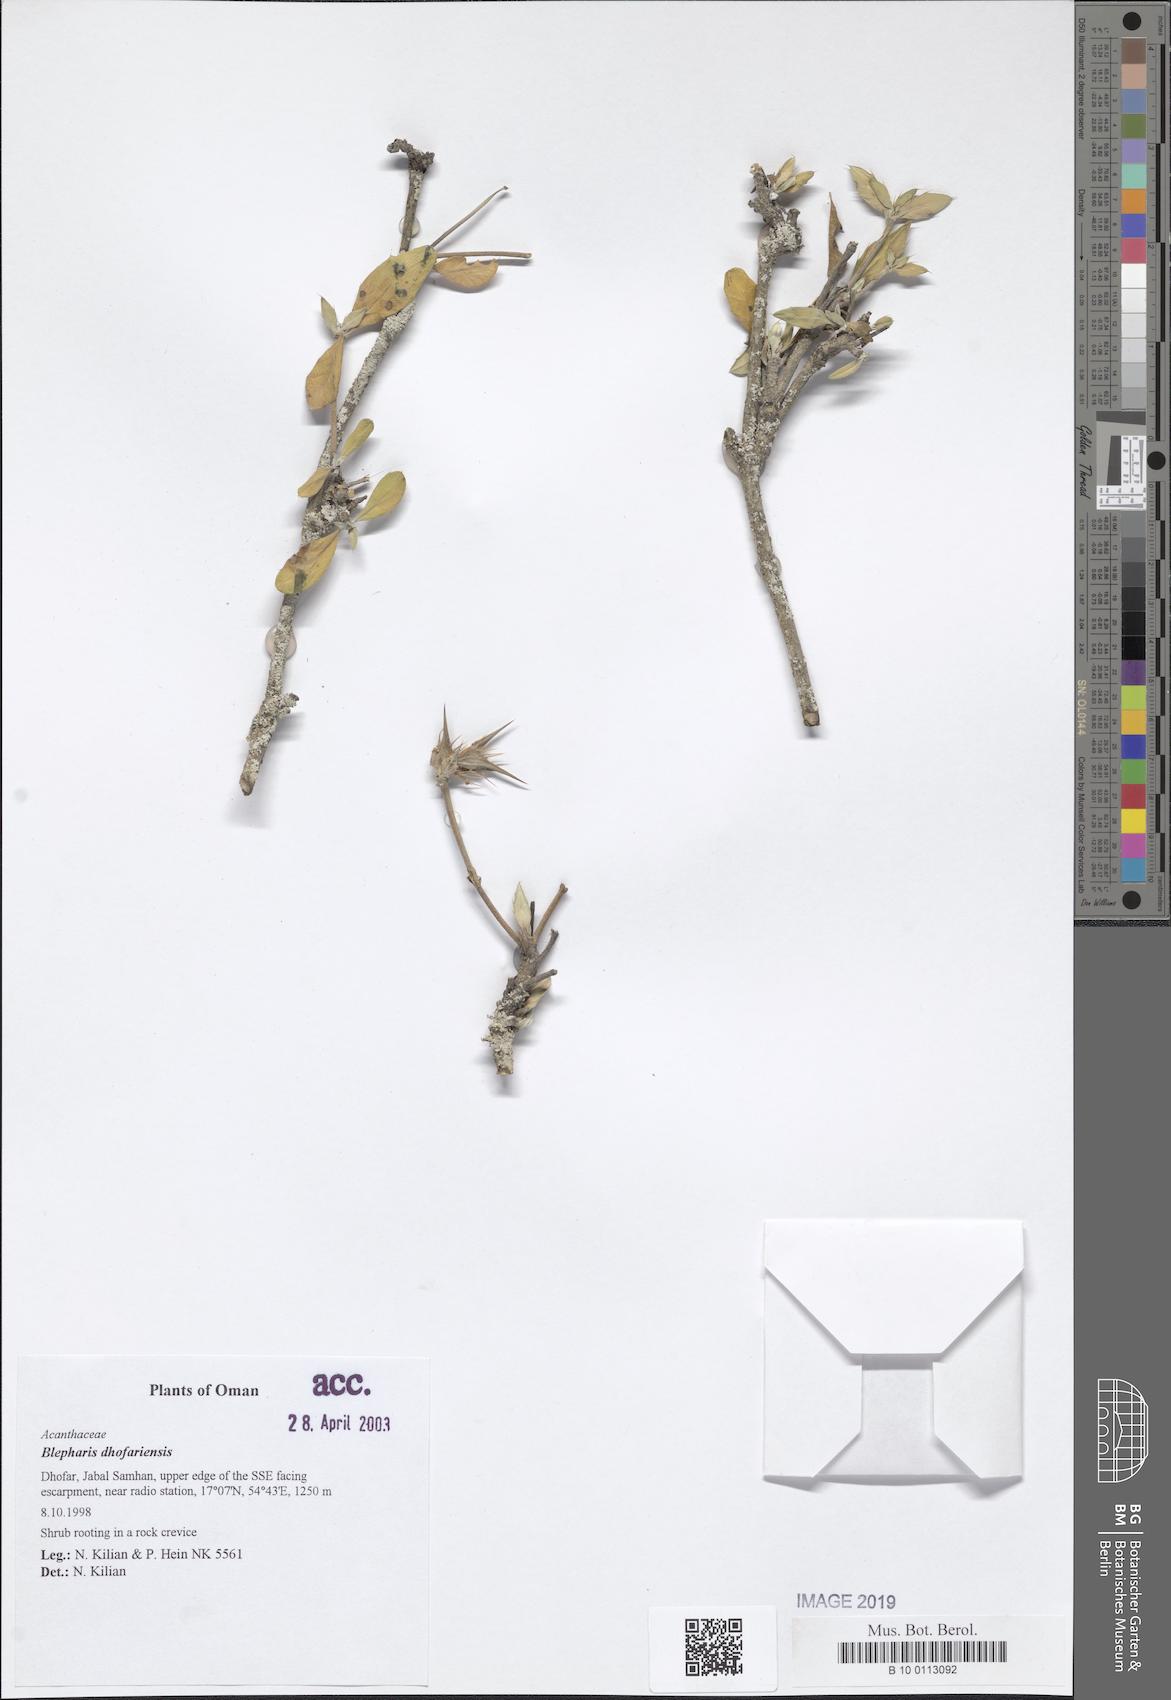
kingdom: Plantae
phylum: Tracheophyta
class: Magnoliopsida
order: Lamiales
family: Acanthaceae
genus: Blepharis
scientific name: Blepharis dhofarensis
